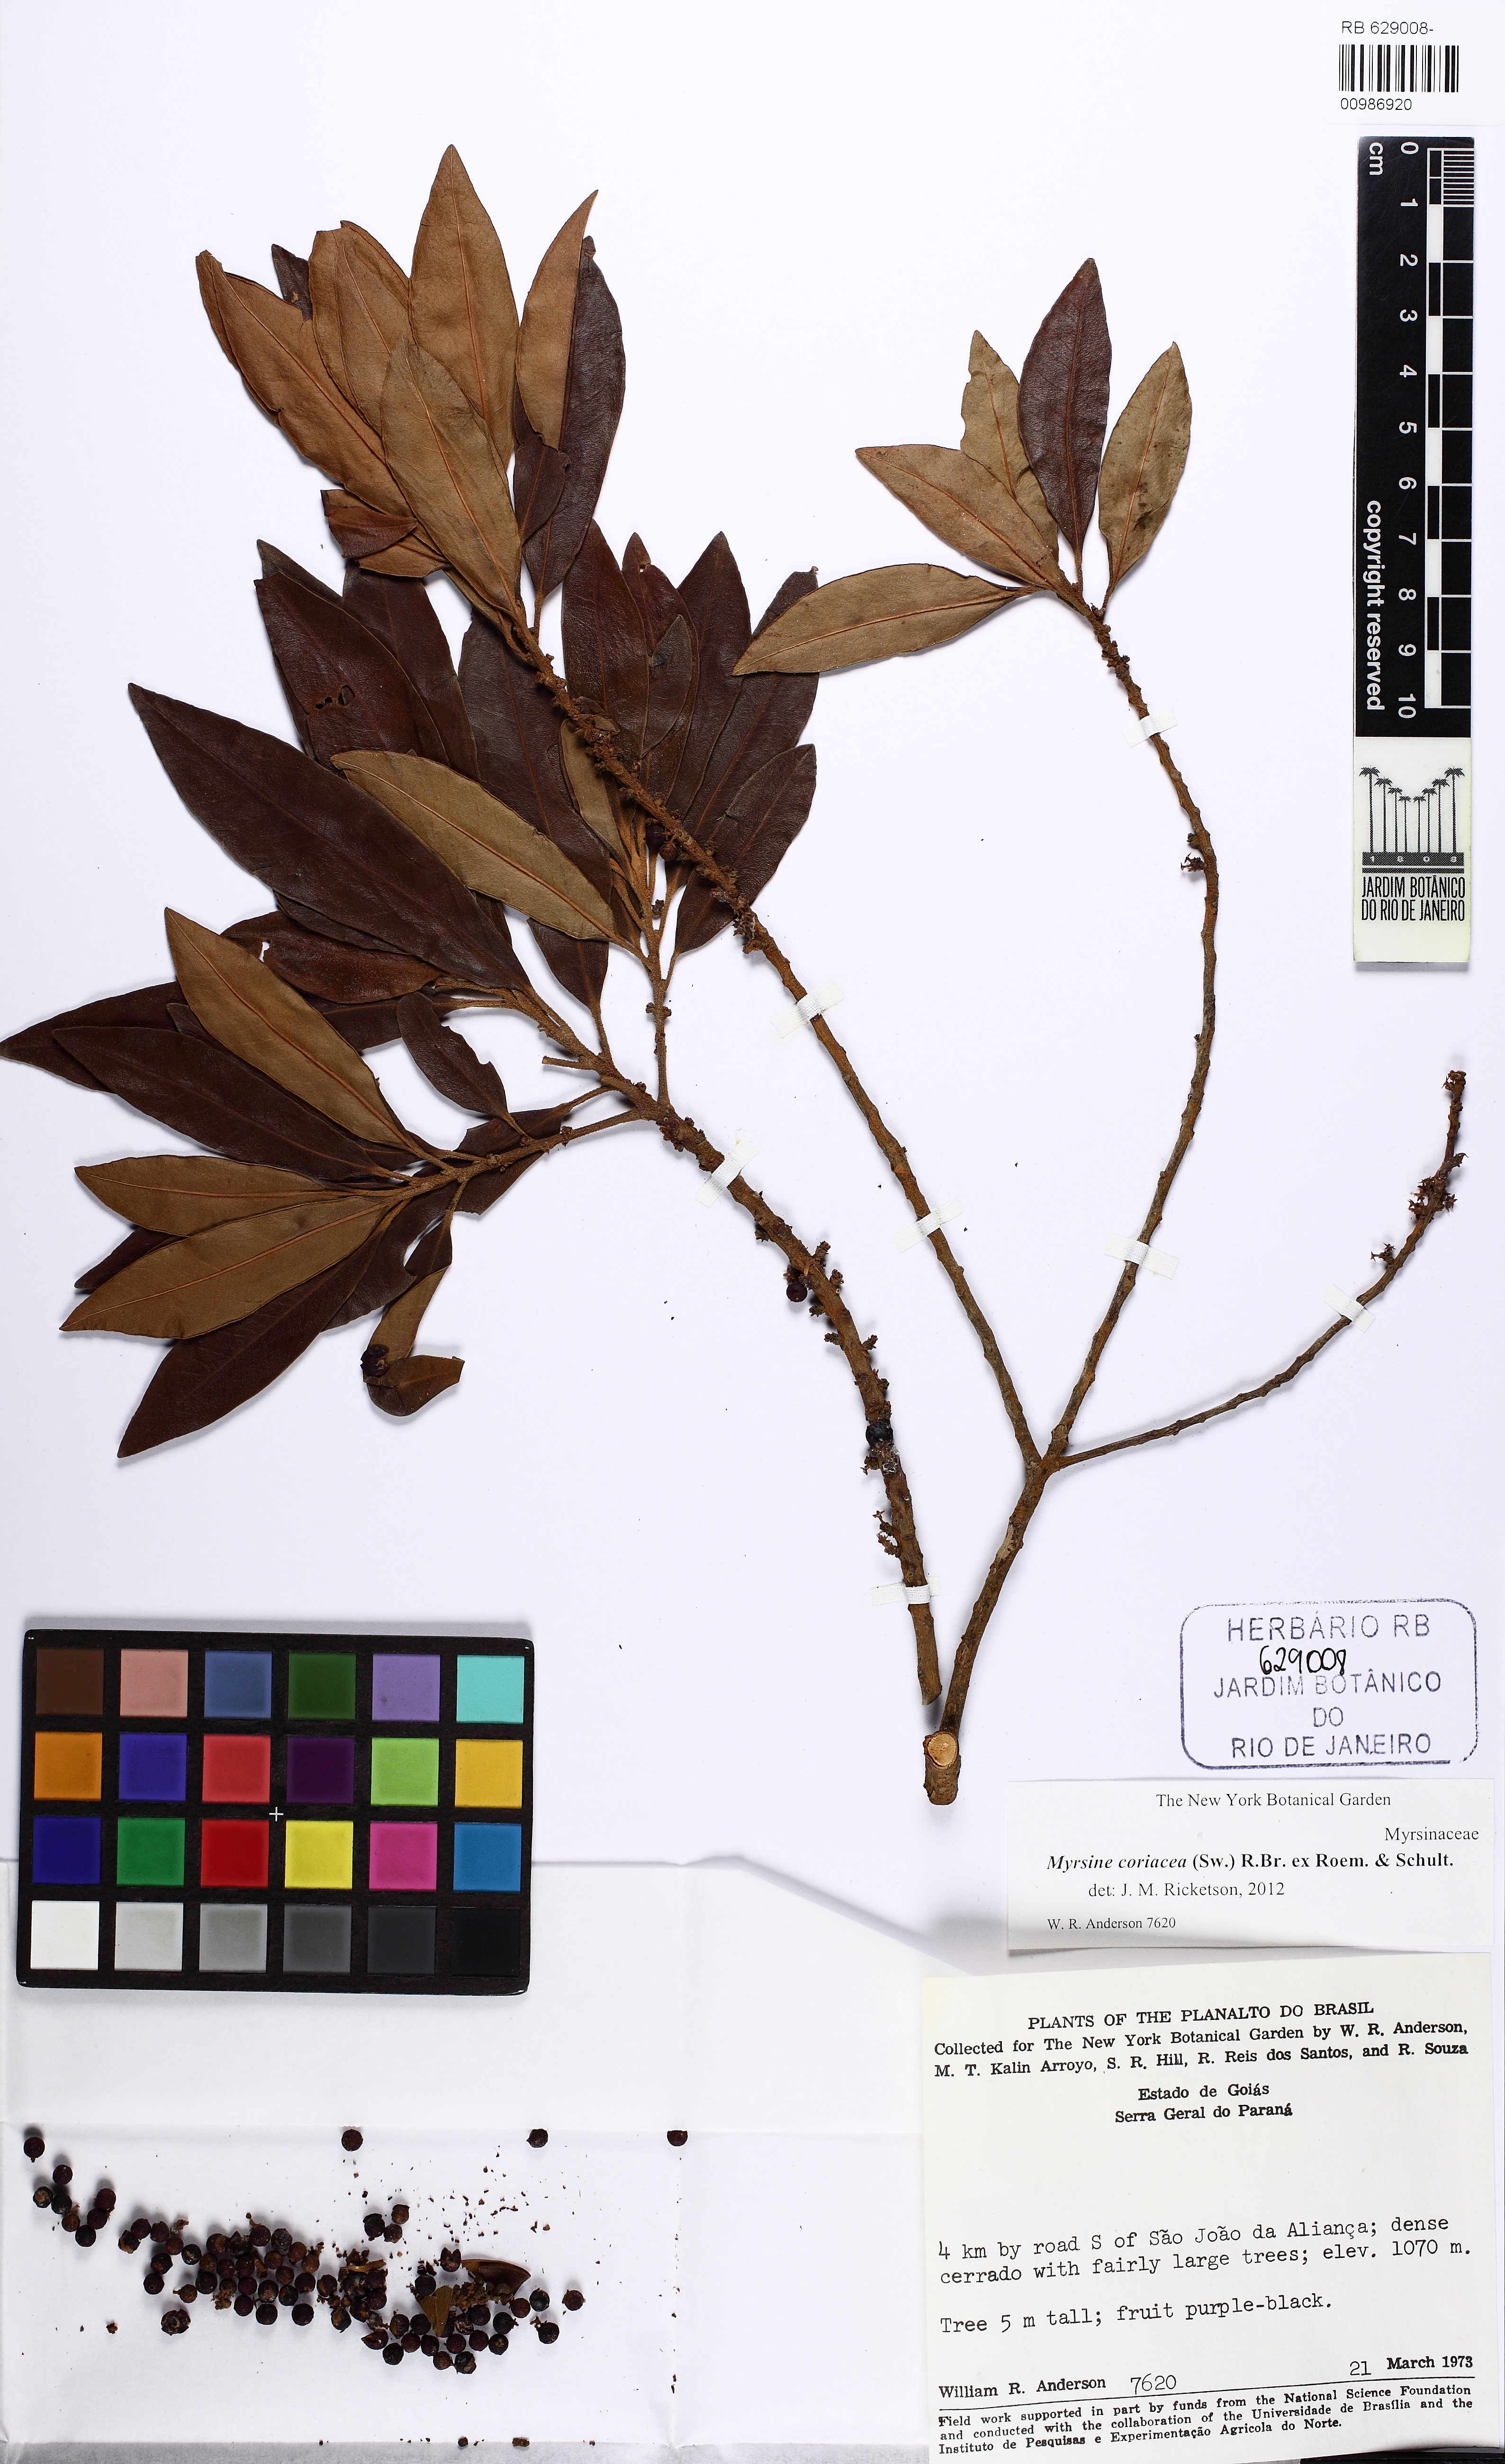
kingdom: Plantae
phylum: Tracheophyta
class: Magnoliopsida
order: Ericales
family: Primulaceae
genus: Myrsine
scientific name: Myrsine coriacea
